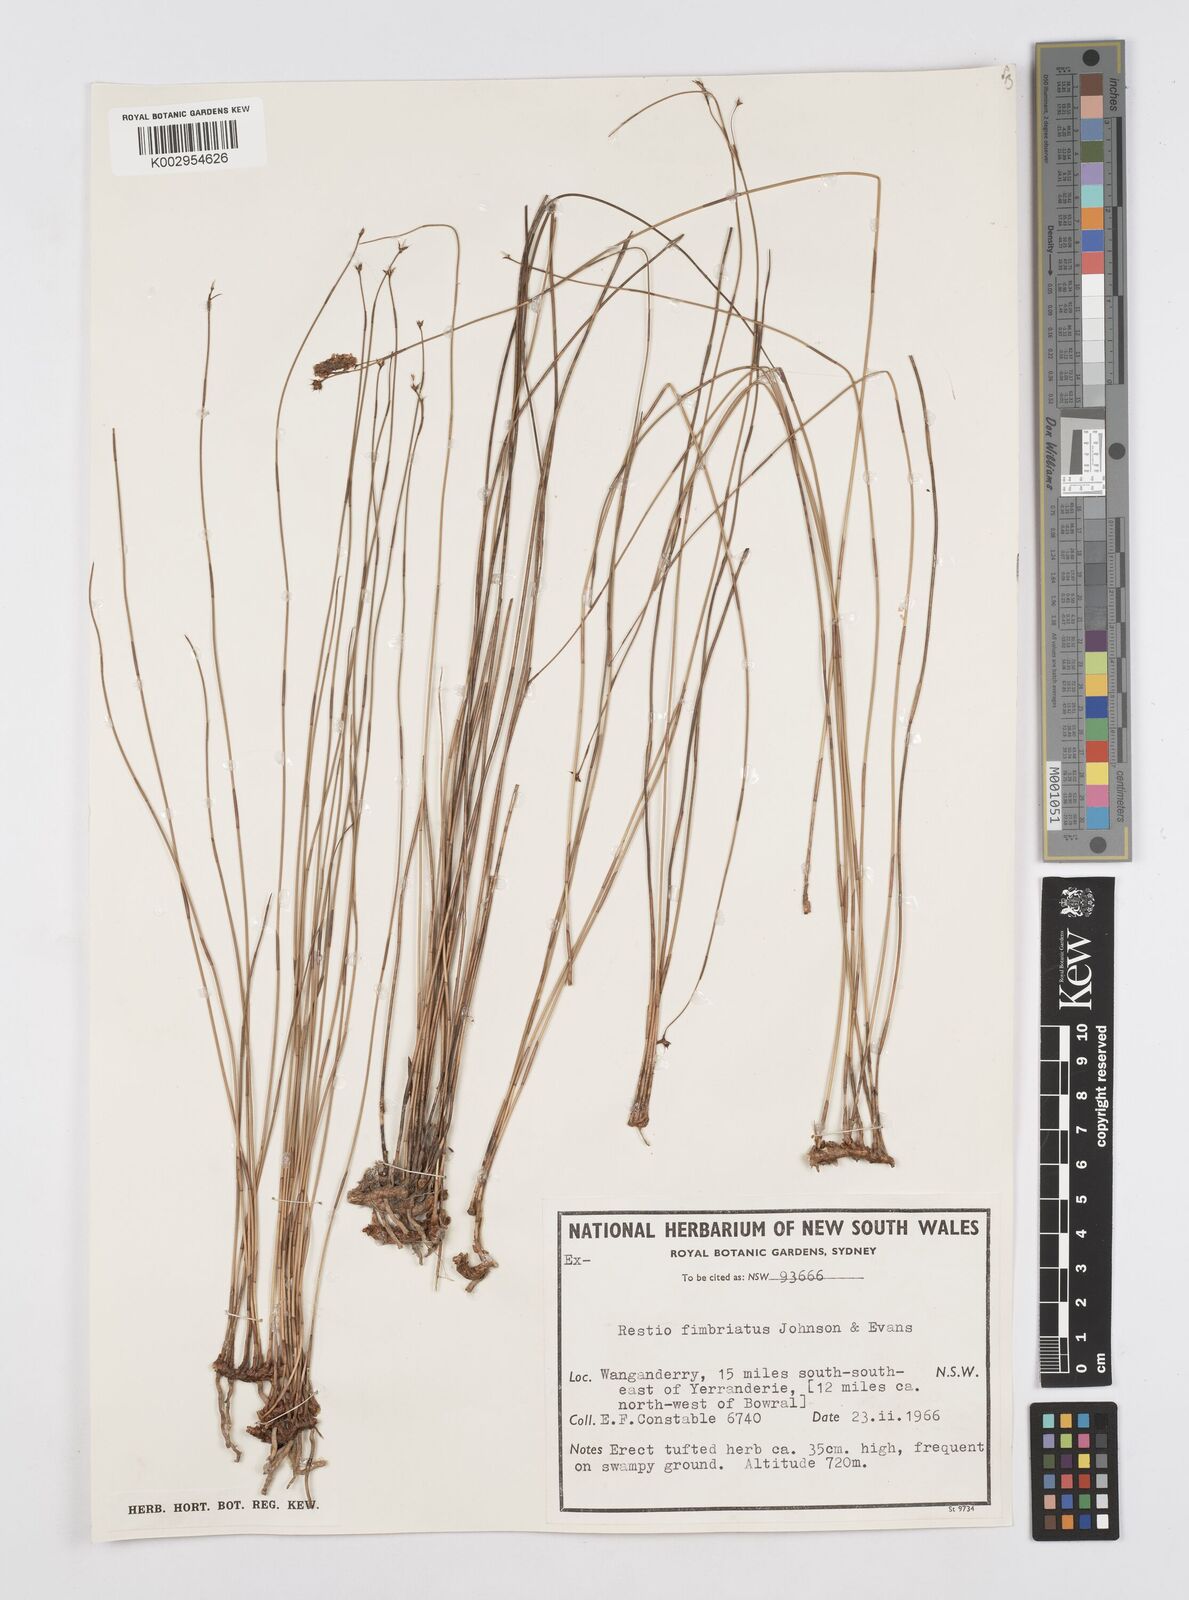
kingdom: Plantae
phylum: Tracheophyta
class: Liliopsida
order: Poales
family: Restionaceae
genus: Baloskion
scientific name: Baloskion fimbriatum
